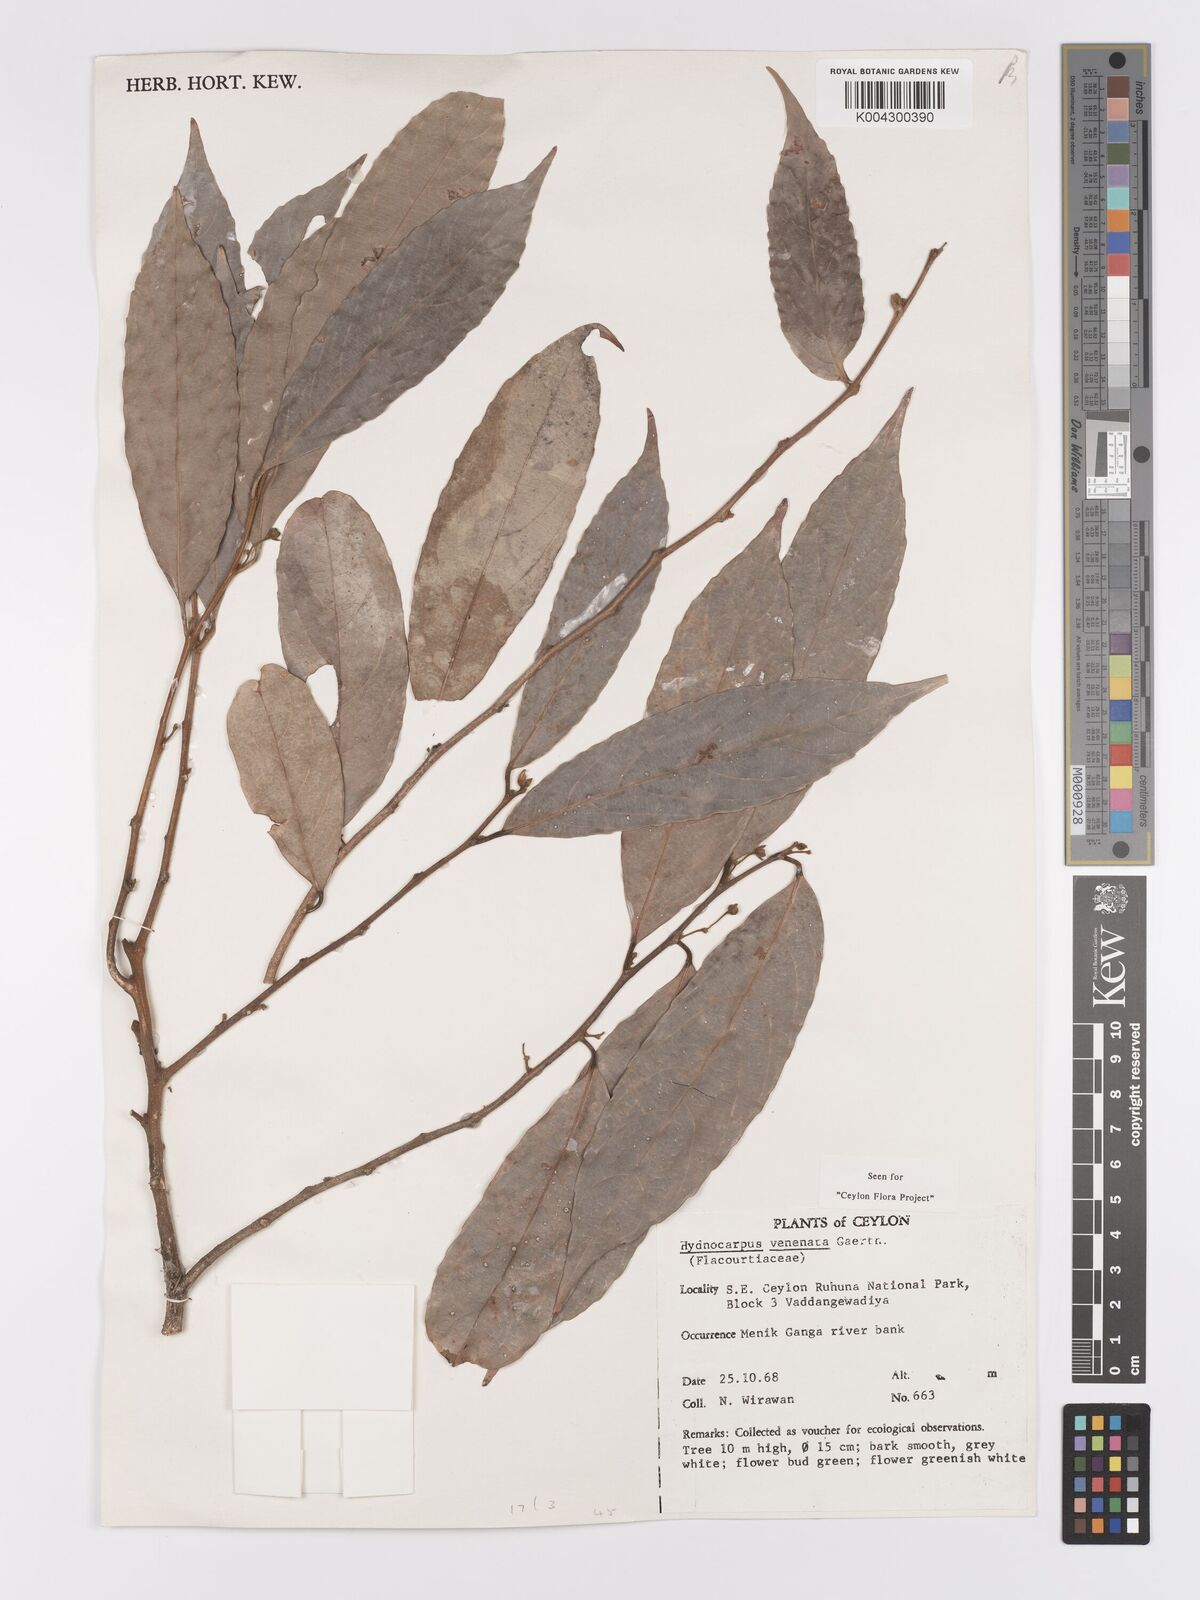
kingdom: Plantae
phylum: Tracheophyta
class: Magnoliopsida
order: Malpighiales
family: Achariaceae
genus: Hydnocarpus
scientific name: Hydnocarpus venenatus
